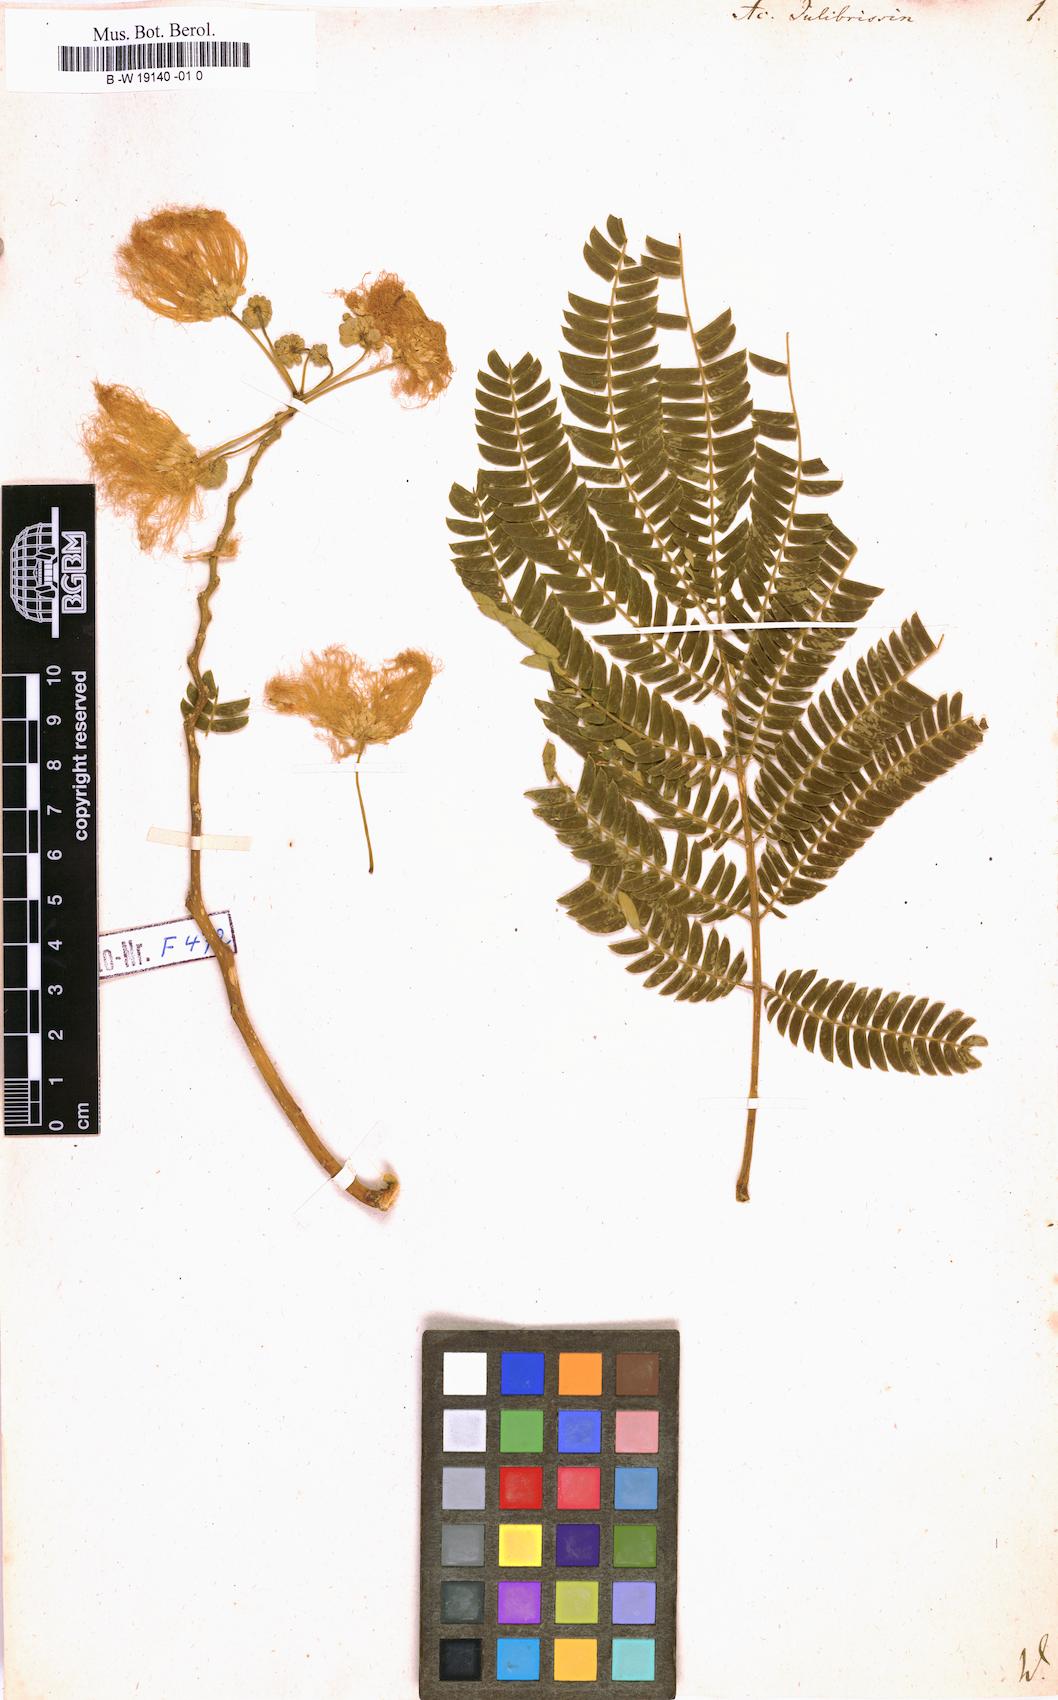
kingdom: Plantae
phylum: Tracheophyta
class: Magnoliopsida
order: Fabales
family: Fabaceae
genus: Albizia
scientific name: Albizia julibrissin
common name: Silktree
